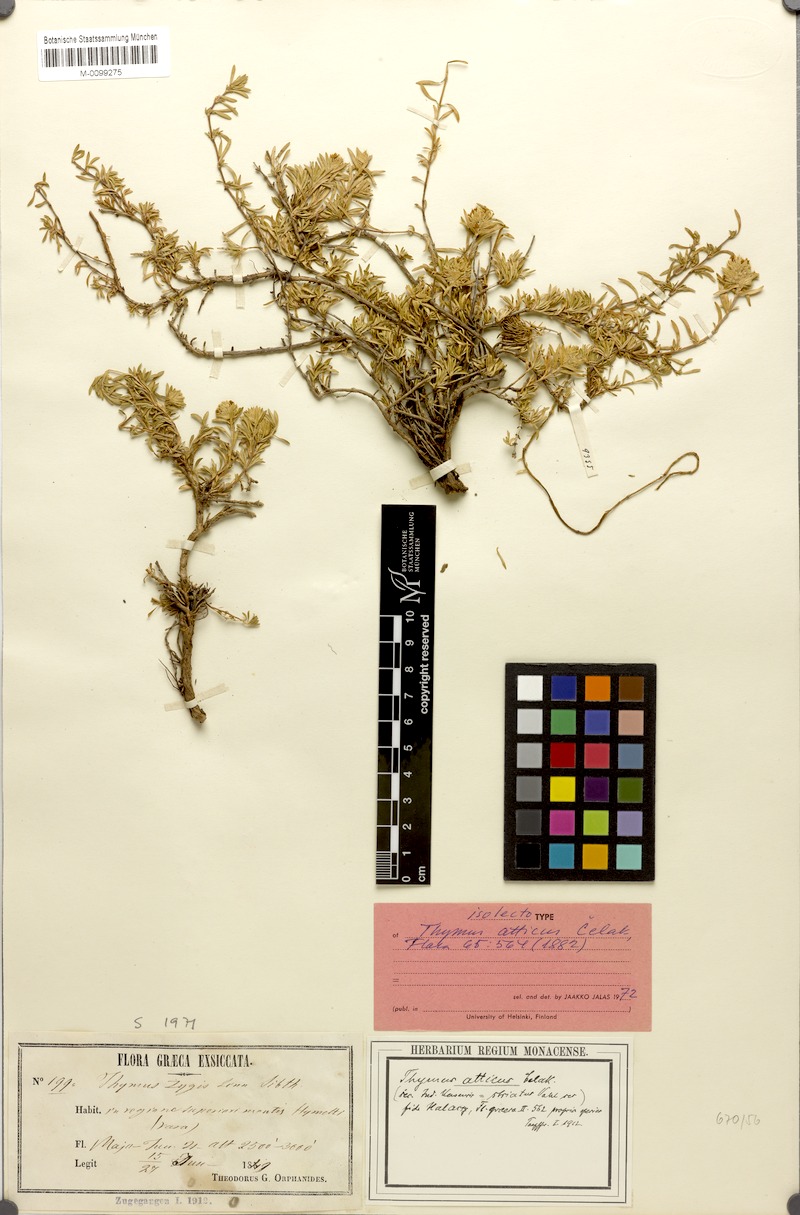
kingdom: Plantae
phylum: Tracheophyta
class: Magnoliopsida
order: Lamiales
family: Lamiaceae
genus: Thymus
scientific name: Thymus atticus
